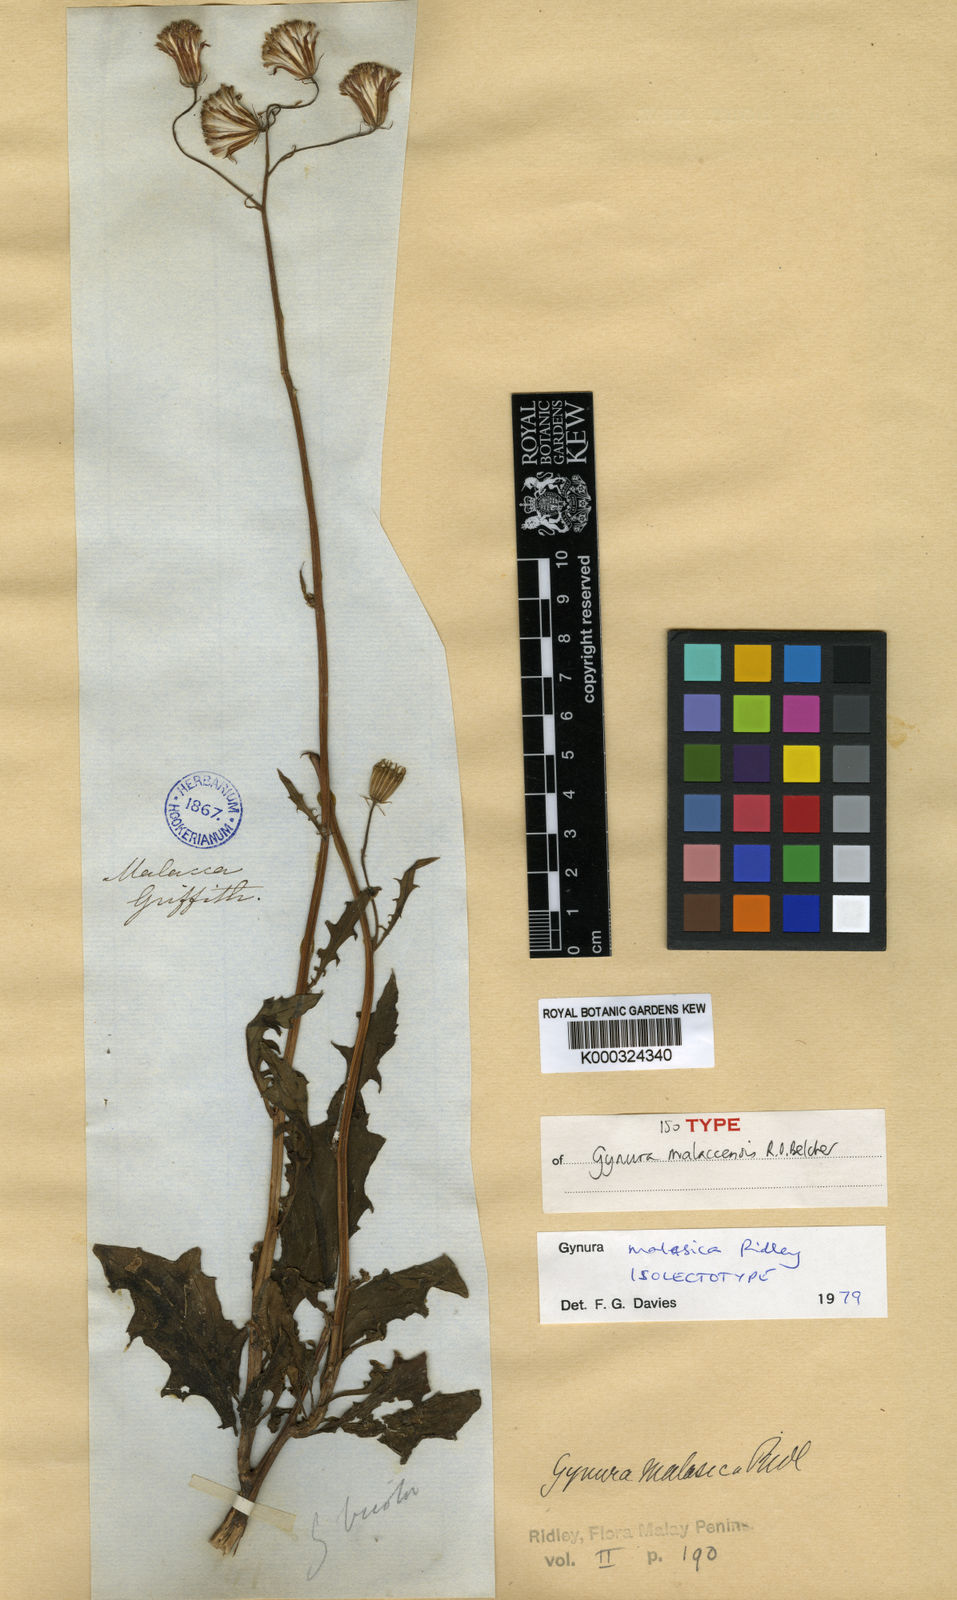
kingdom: Plantae
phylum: Tracheophyta
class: Magnoliopsida
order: Asterales
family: Asteraceae
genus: Erechtites
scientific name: Erechtites hieraciifolius
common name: American burnweed
